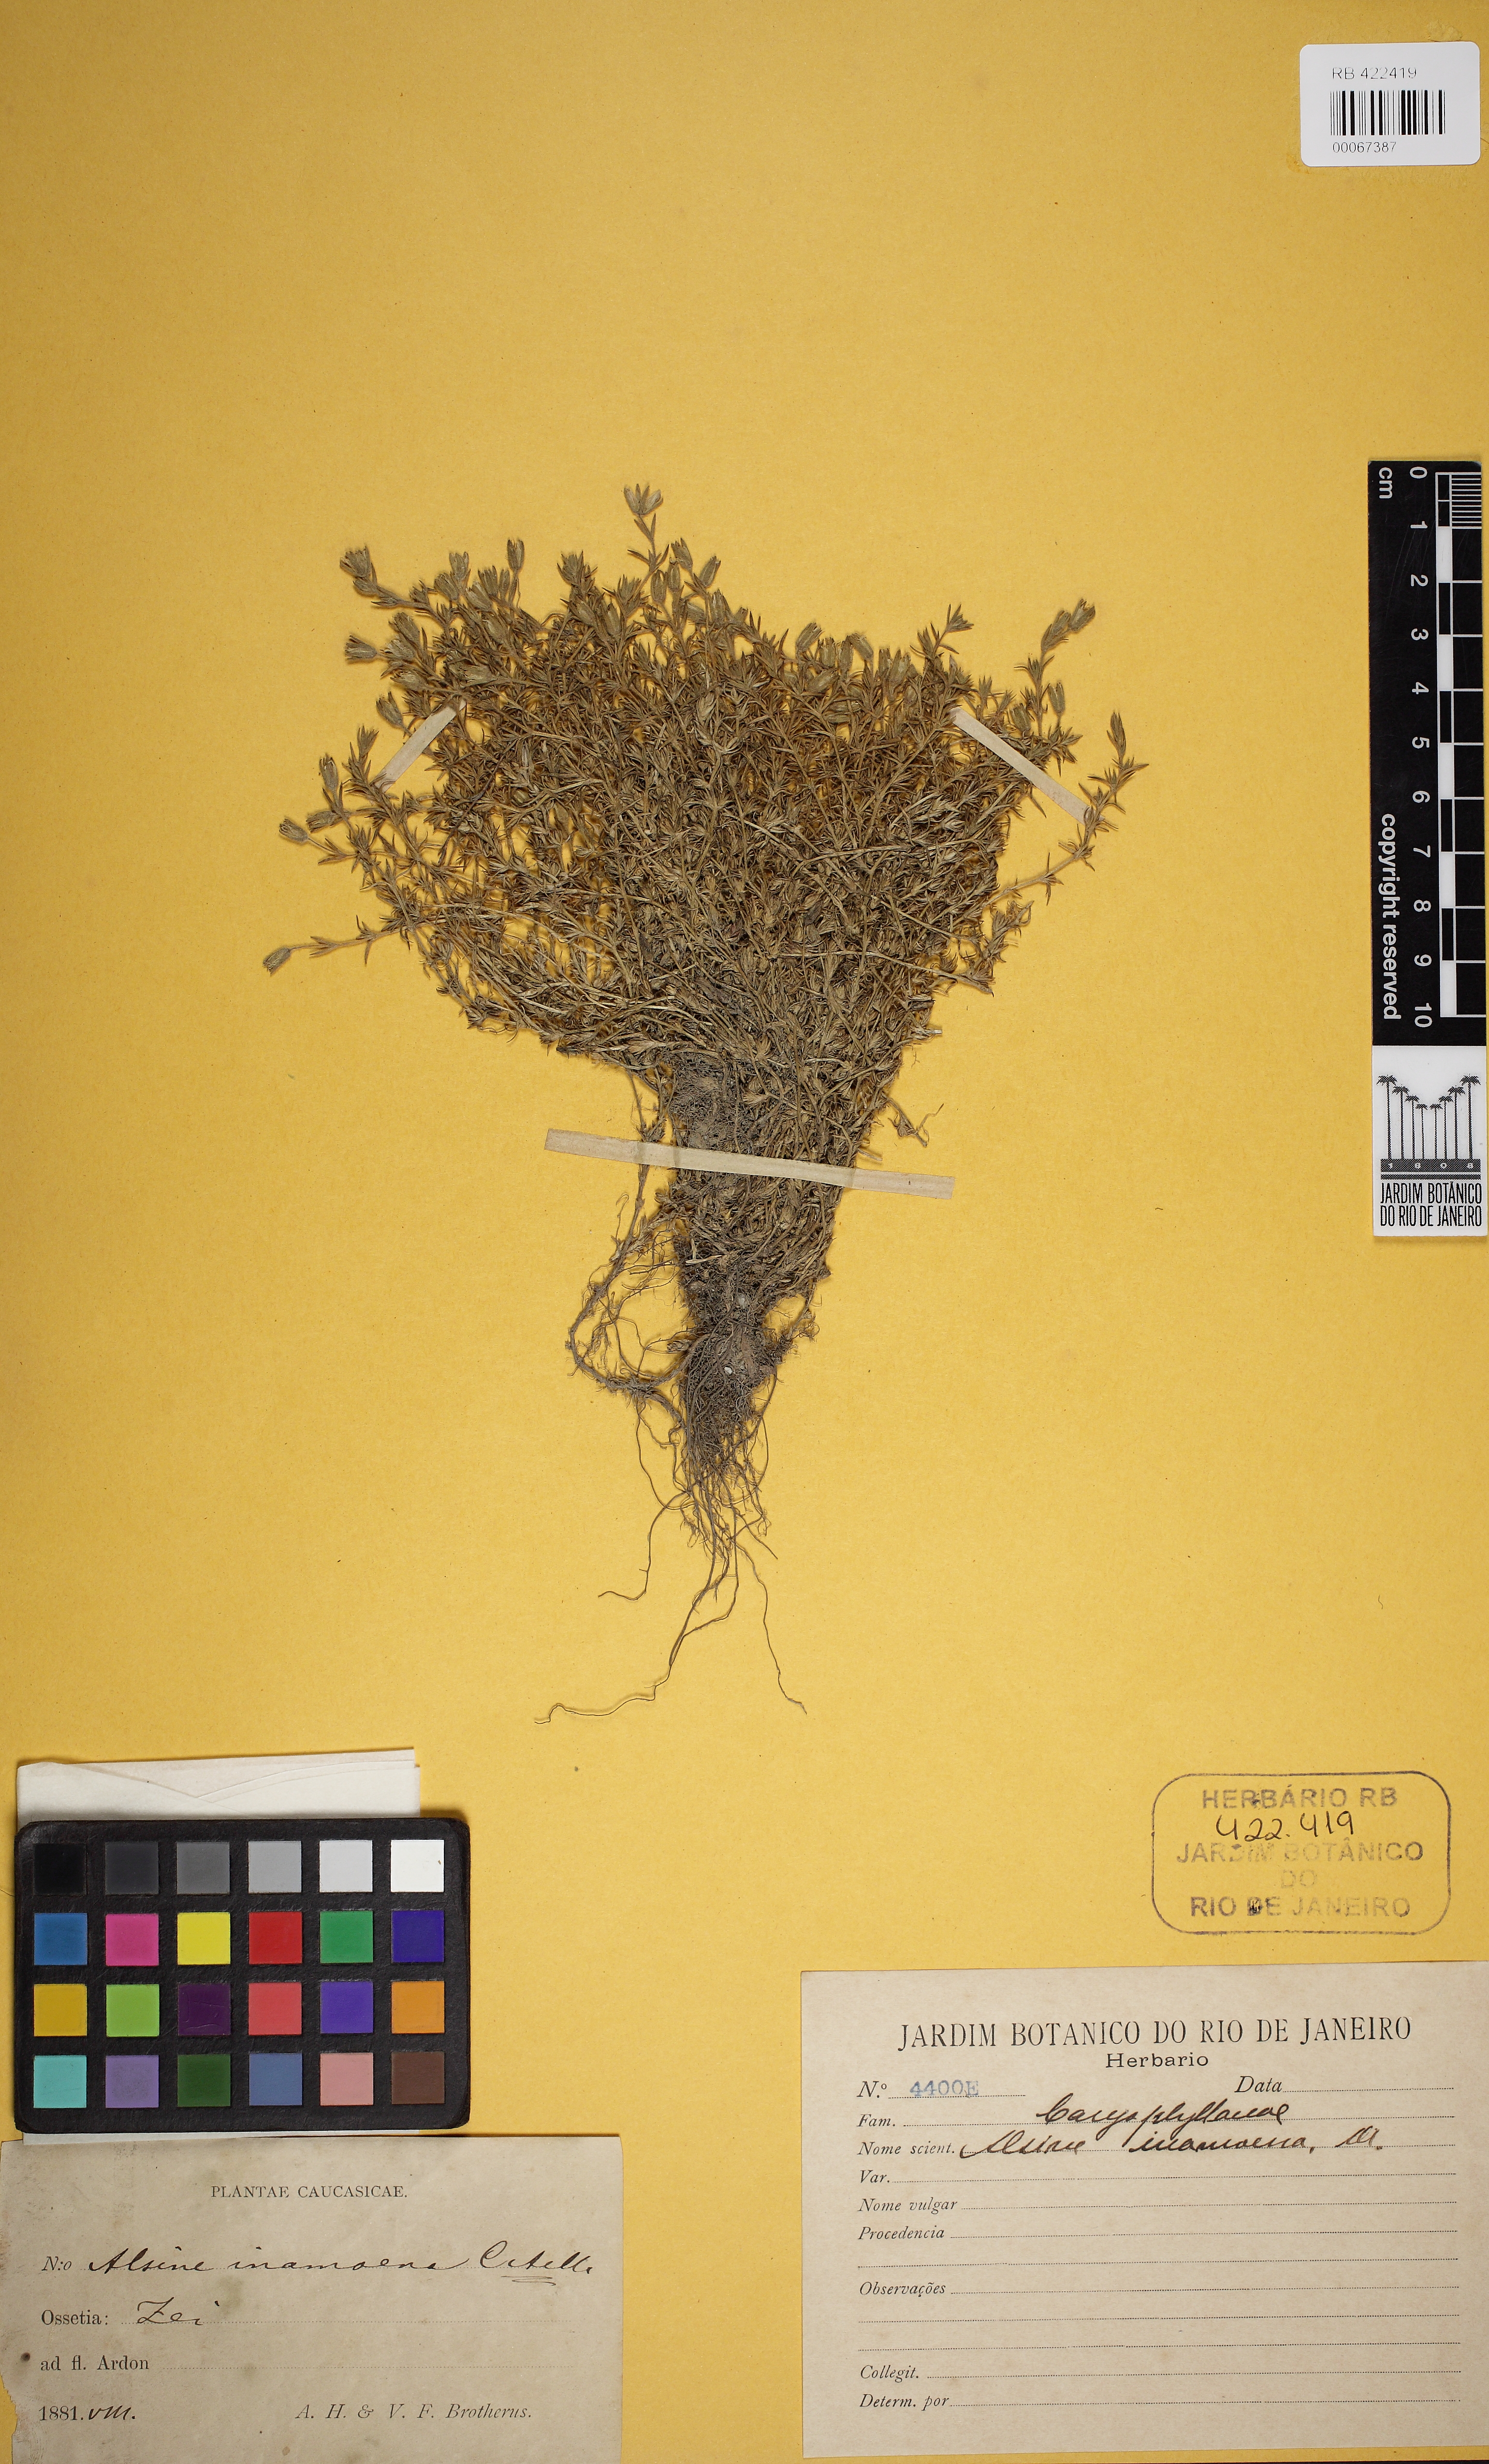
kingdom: Plantae
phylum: Tracheophyta
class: Magnoliopsida
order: Caryophyllales
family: Caryophyllaceae
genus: Pseudocherleria
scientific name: Pseudocherleria inamoena
